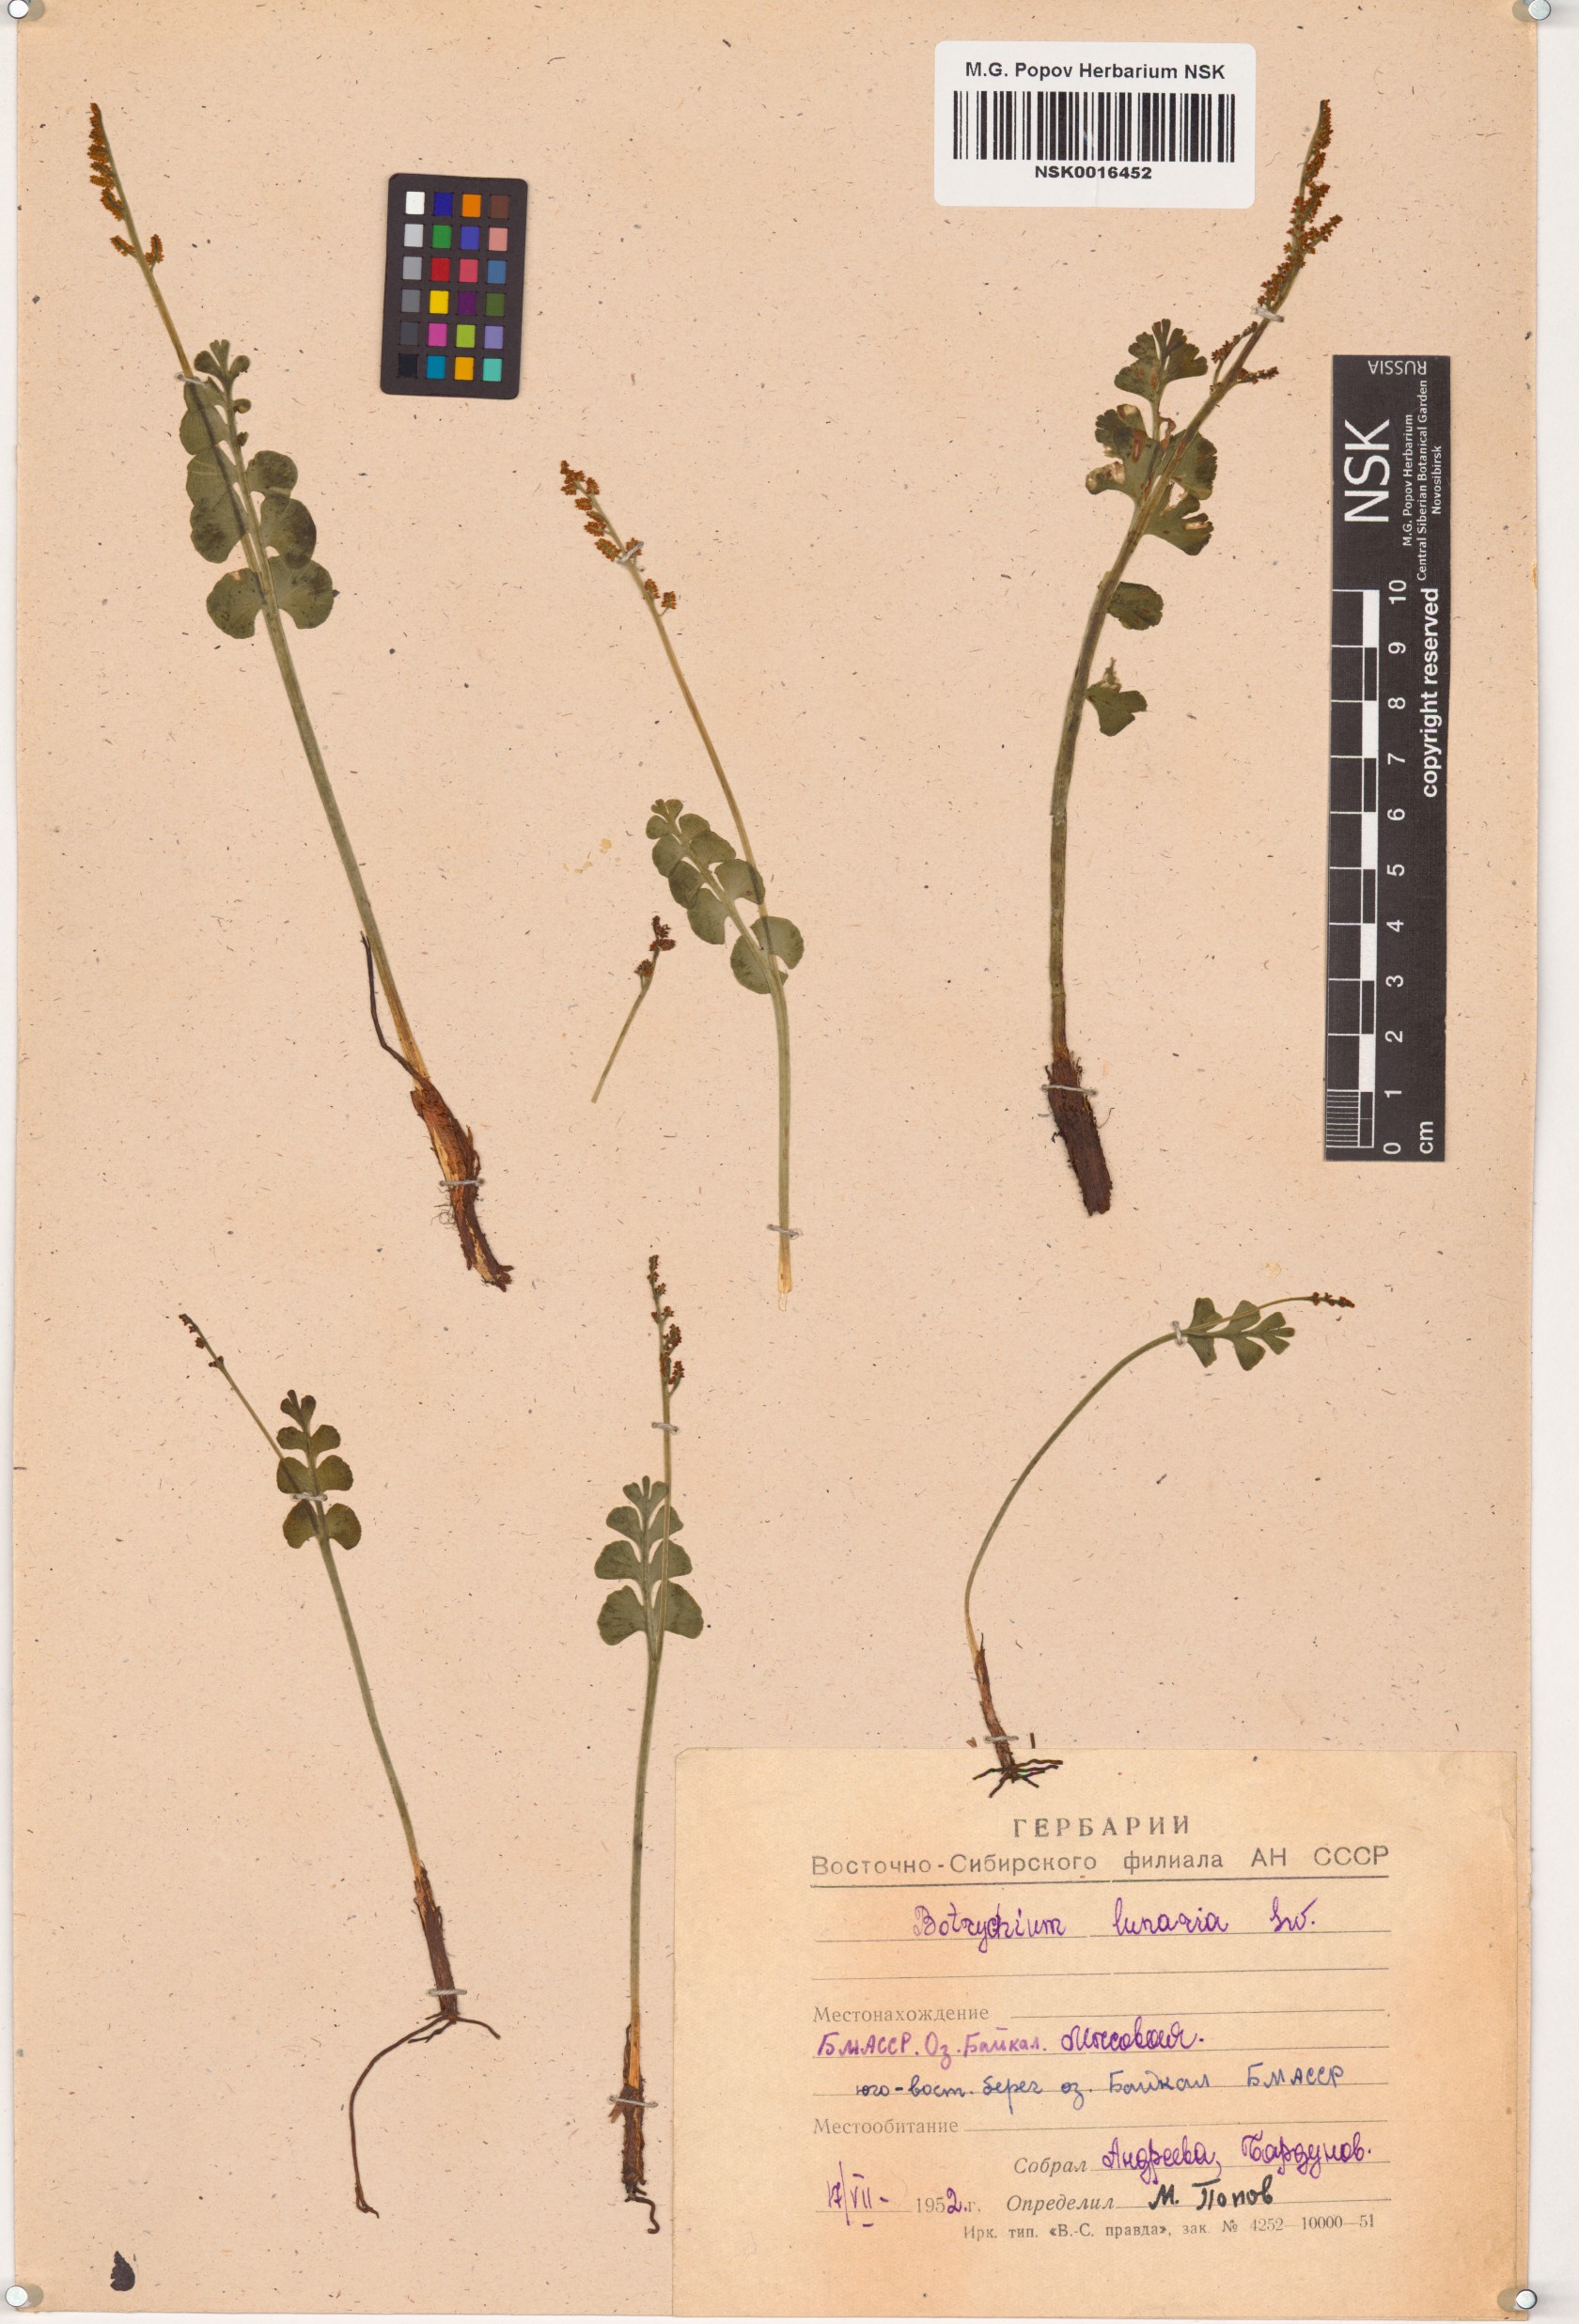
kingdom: Plantae
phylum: Tracheophyta
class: Polypodiopsida
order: Ophioglossales
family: Ophioglossaceae
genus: Botrychium
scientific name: Botrychium lunaria
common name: Moonwort
